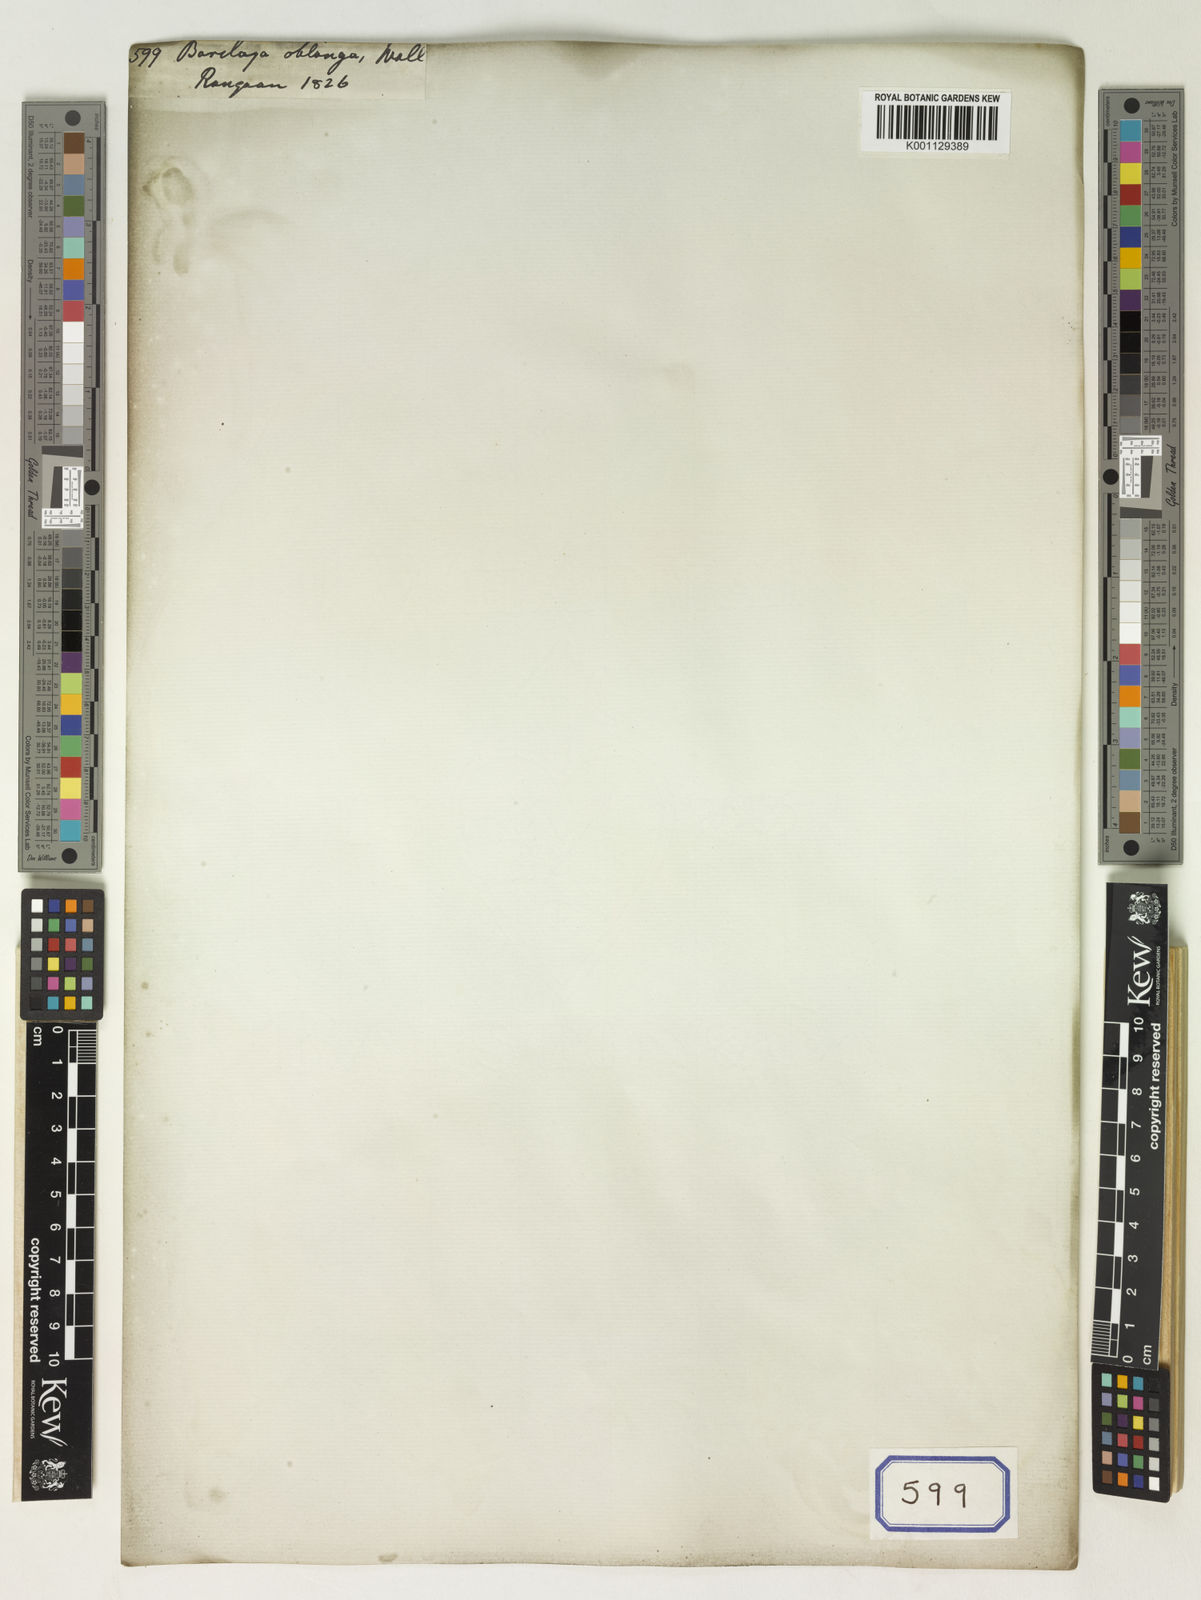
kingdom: Plantae
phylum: Tracheophyta
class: Magnoliopsida
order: Nymphaeales
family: Nymphaeaceae
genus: Barclaya
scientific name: Barclaya longifolia
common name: Orchid lily
